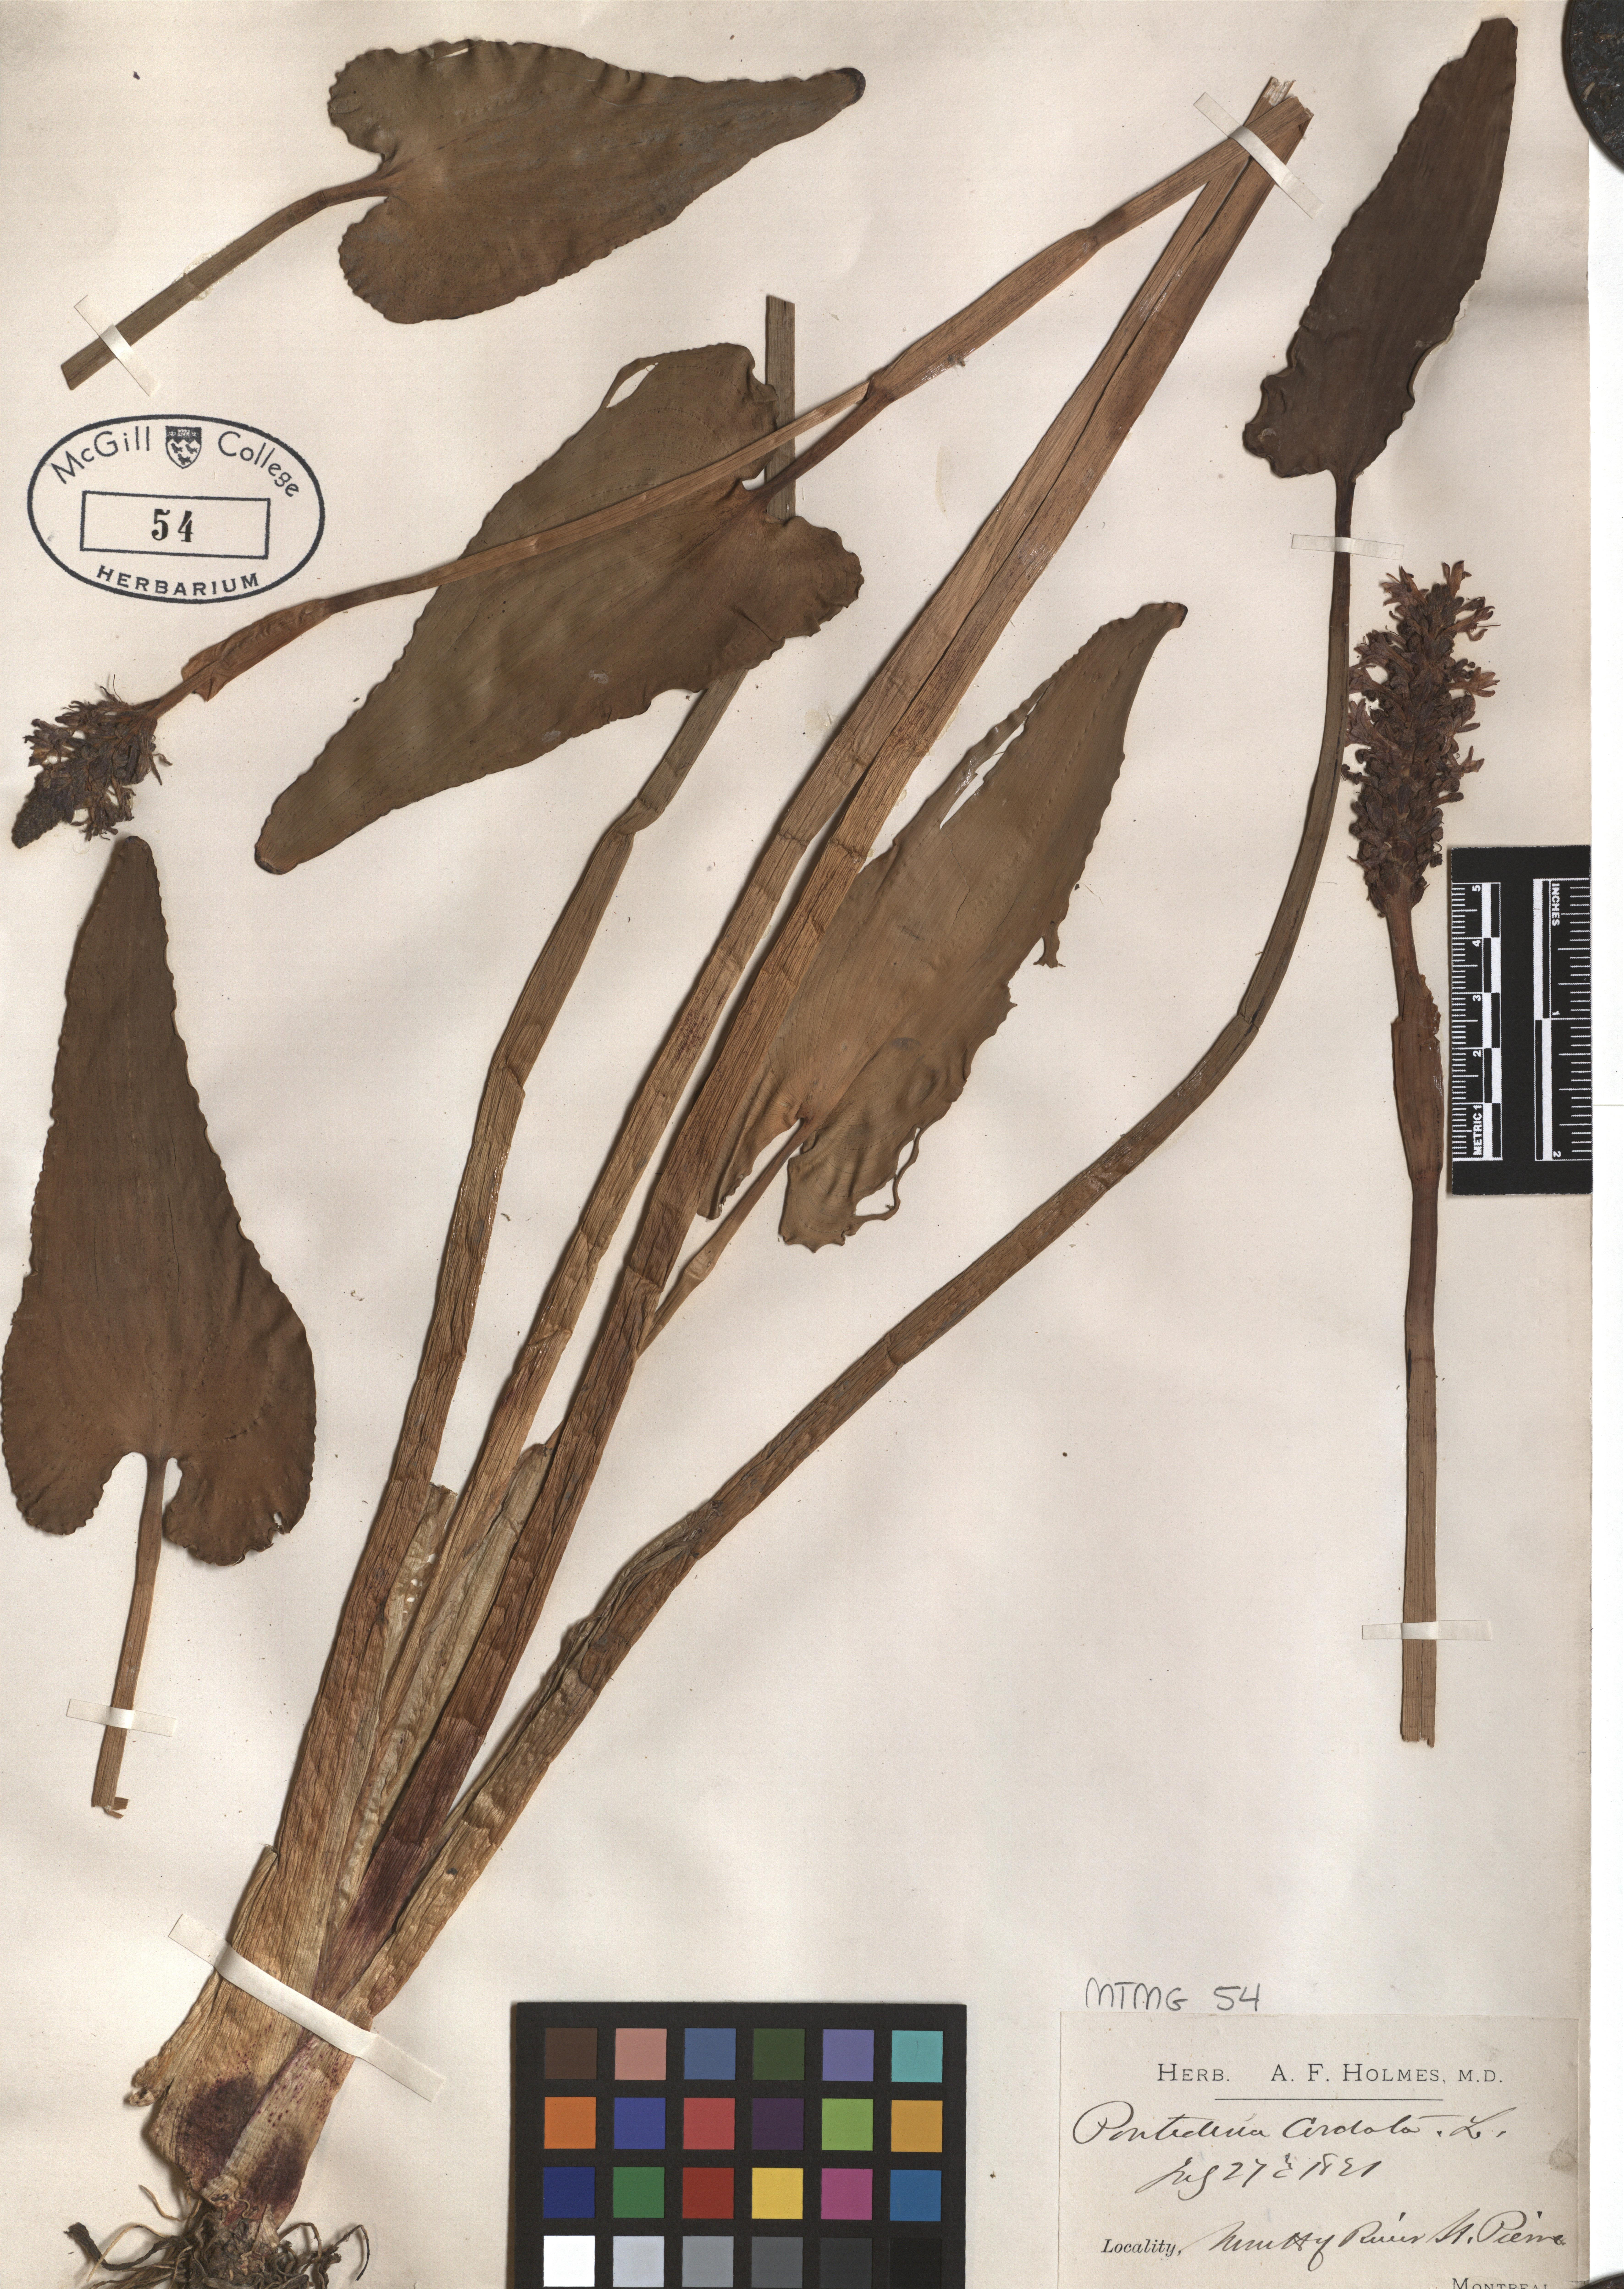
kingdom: Plantae
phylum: Tracheophyta
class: Liliopsida
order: Commelinales
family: Pontederiaceae
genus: Pontederia
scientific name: Pontederia cordata
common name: Pickerelweed
